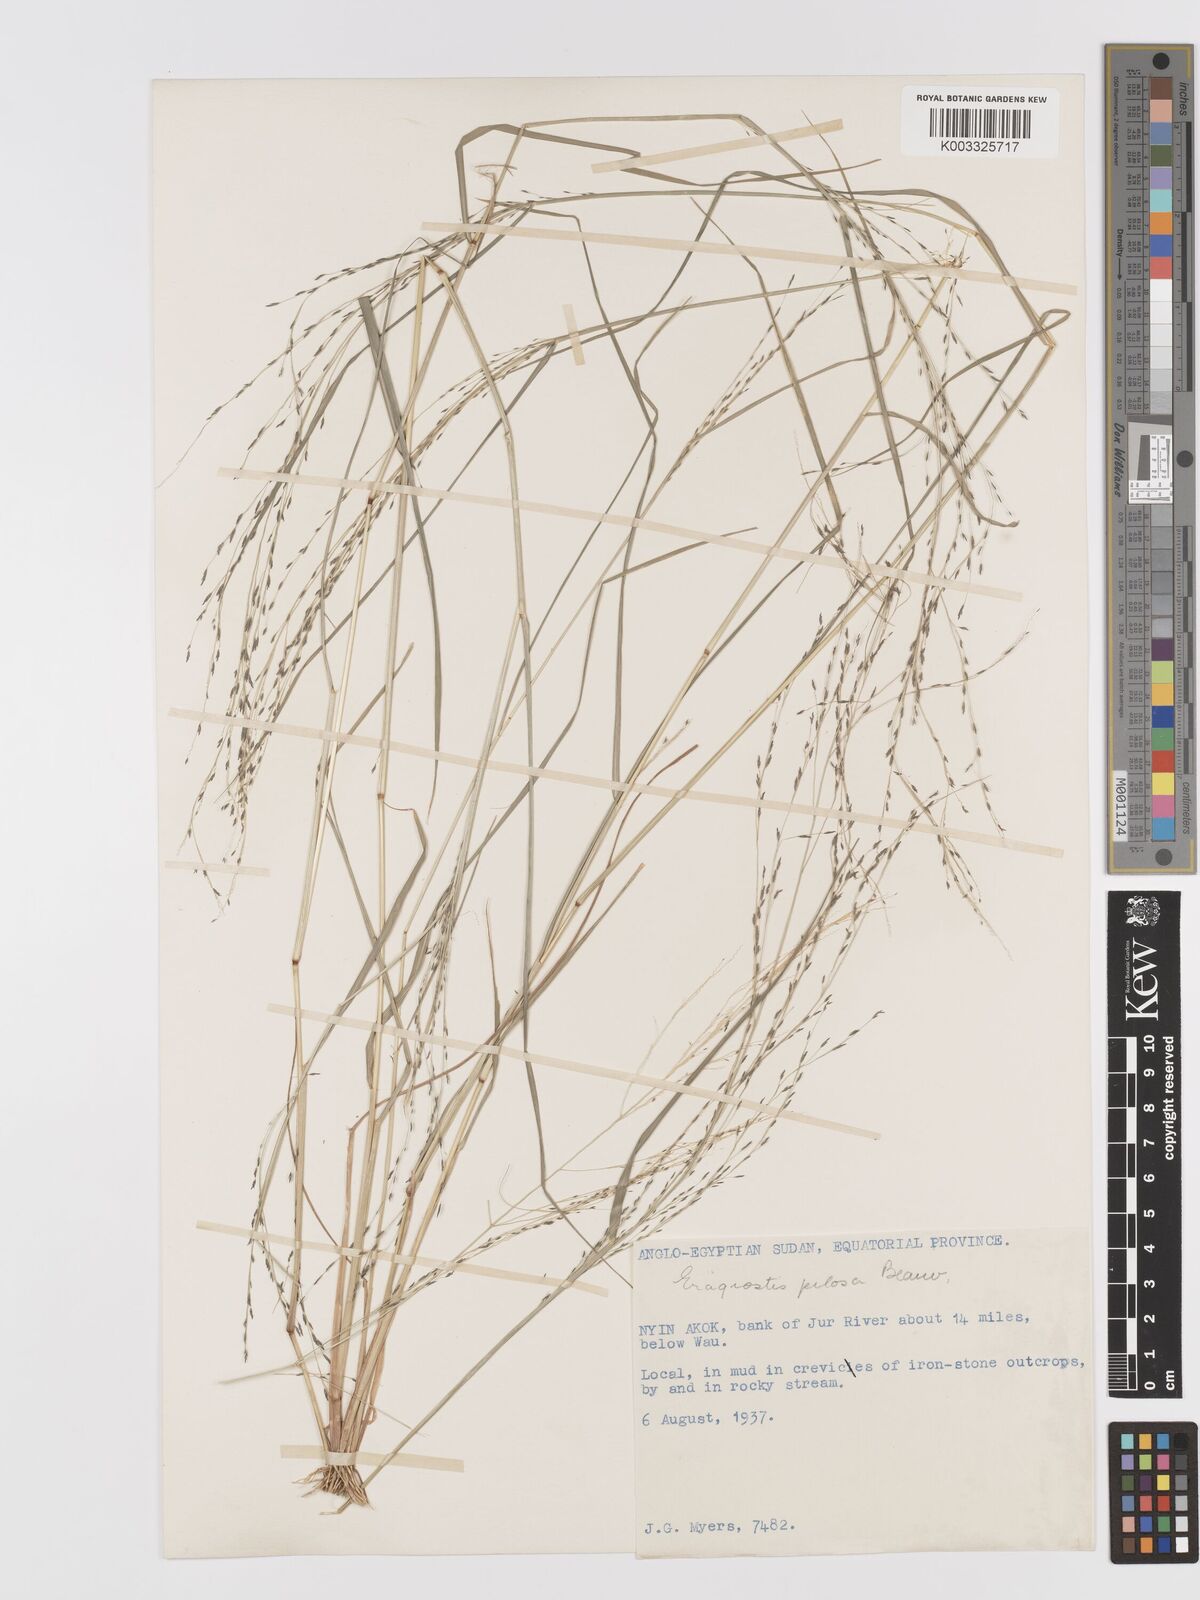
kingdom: Plantae
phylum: Tracheophyta
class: Liliopsida
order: Poales
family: Poaceae
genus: Eragrostis
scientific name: Eragrostis pilosa
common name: Indian lovegrass
